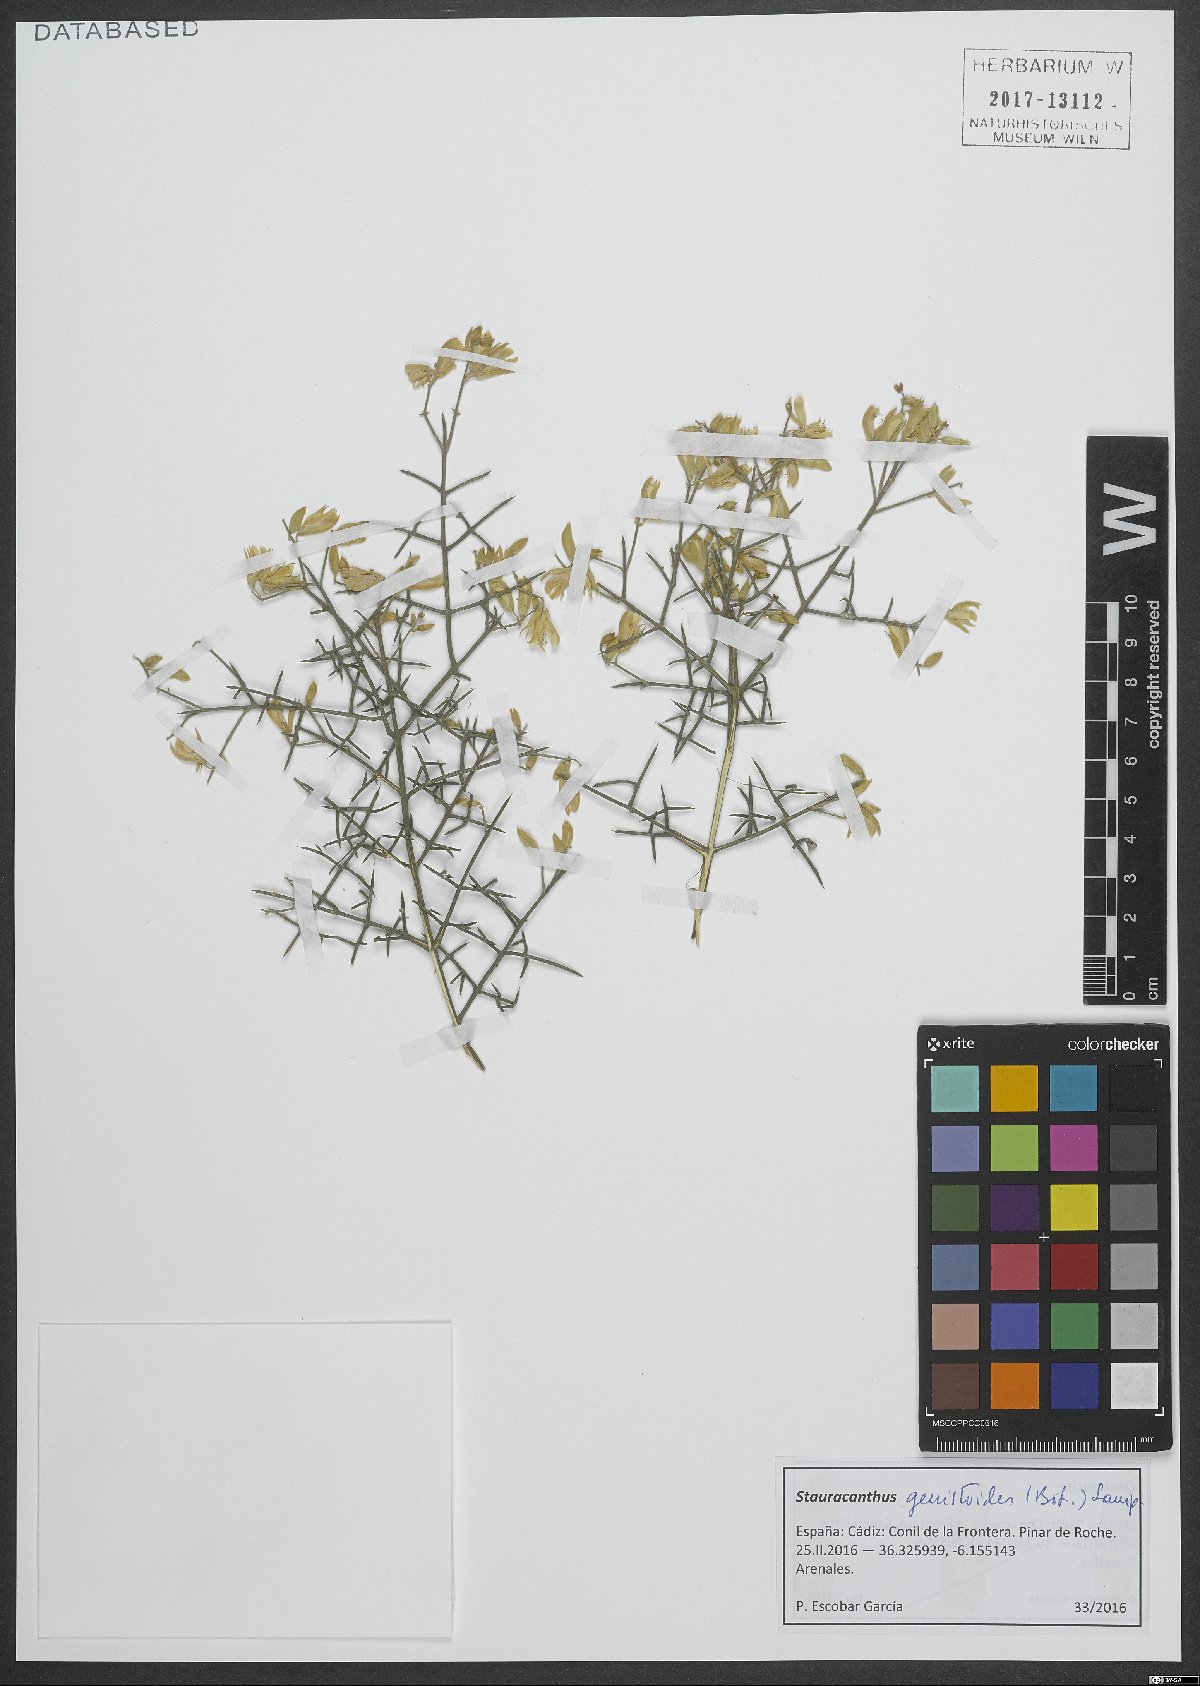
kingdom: Plantae
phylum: Tracheophyta
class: Magnoliopsida
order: Fabales
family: Fabaceae
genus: Stauracanthus
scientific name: Stauracanthus genistoides
